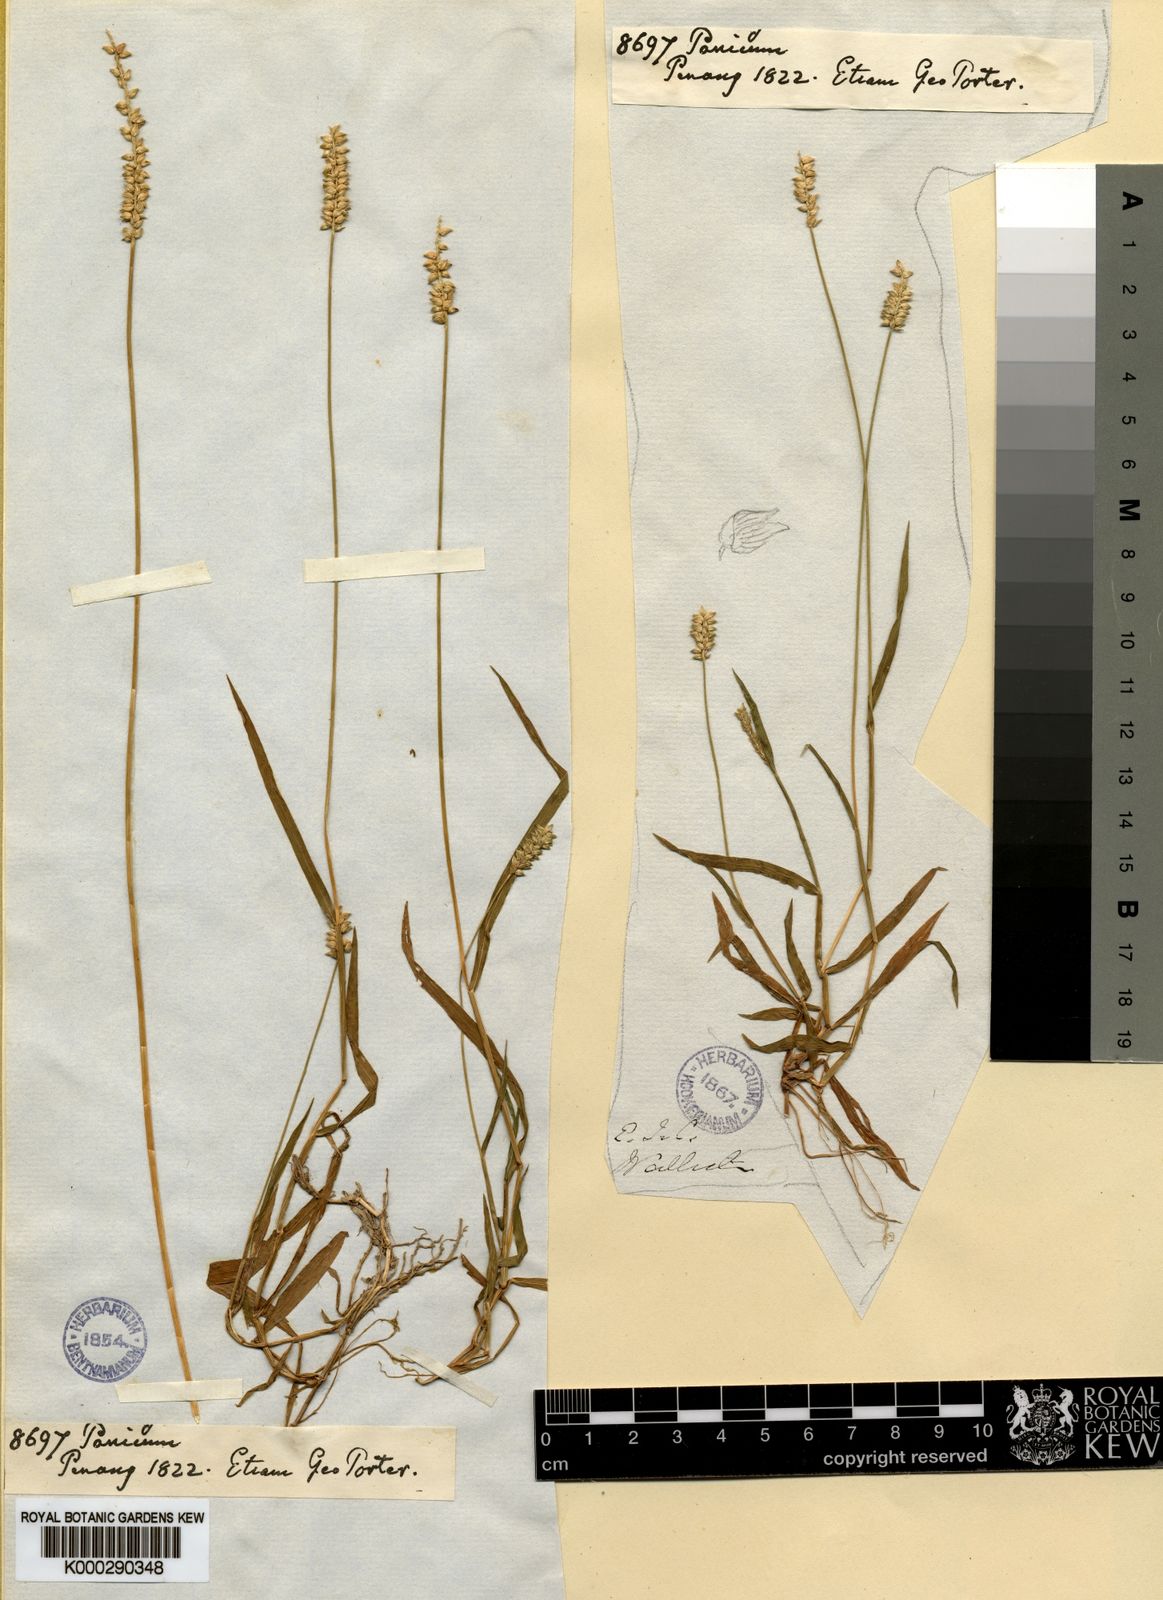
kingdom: Plantae
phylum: Tracheophyta
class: Liliopsida
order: Poales
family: Poaceae
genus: Sacciolepis
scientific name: Sacciolepis indica
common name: Glenwoodgrass
